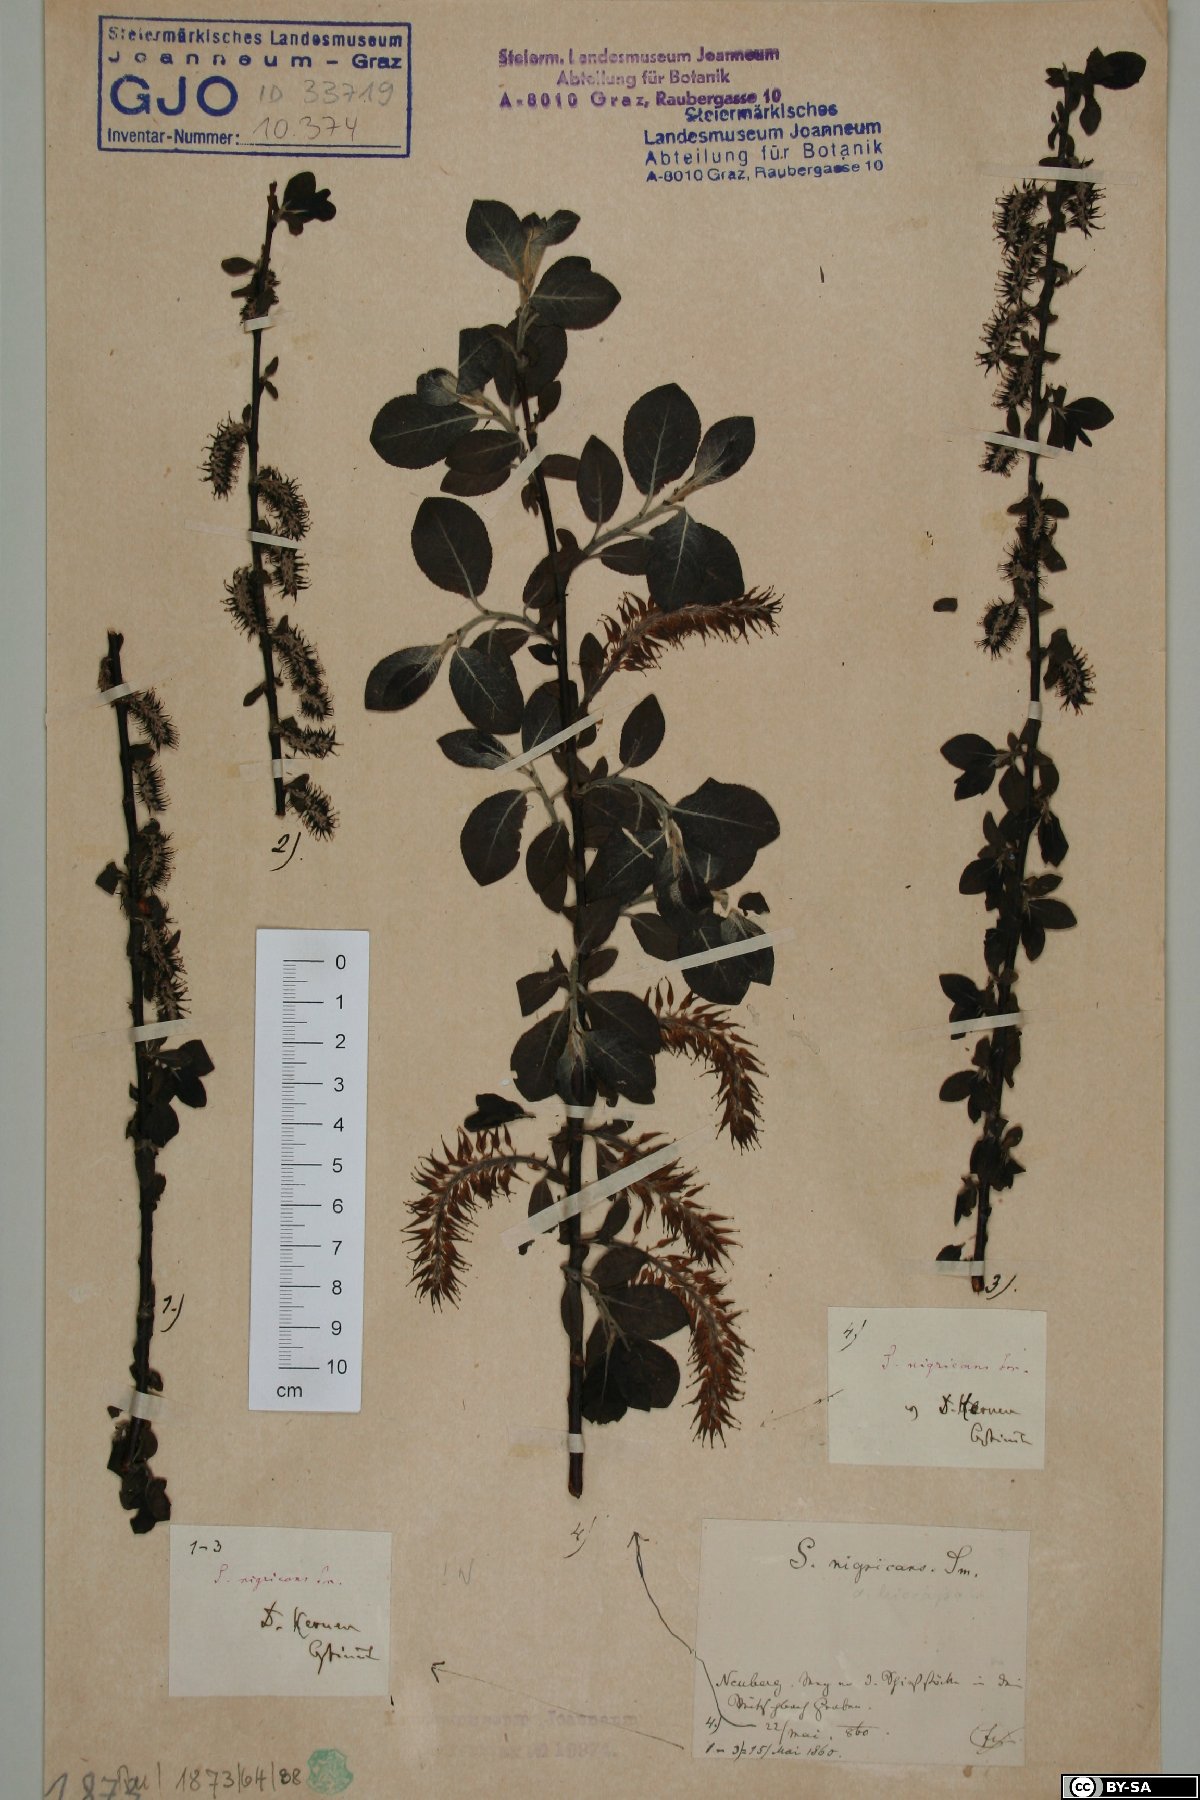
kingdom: Plantae
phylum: Tracheophyta
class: Magnoliopsida
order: Malpighiales
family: Salicaceae
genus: Salix
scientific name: Salix myrsinifolia
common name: Dark-leaved willow
